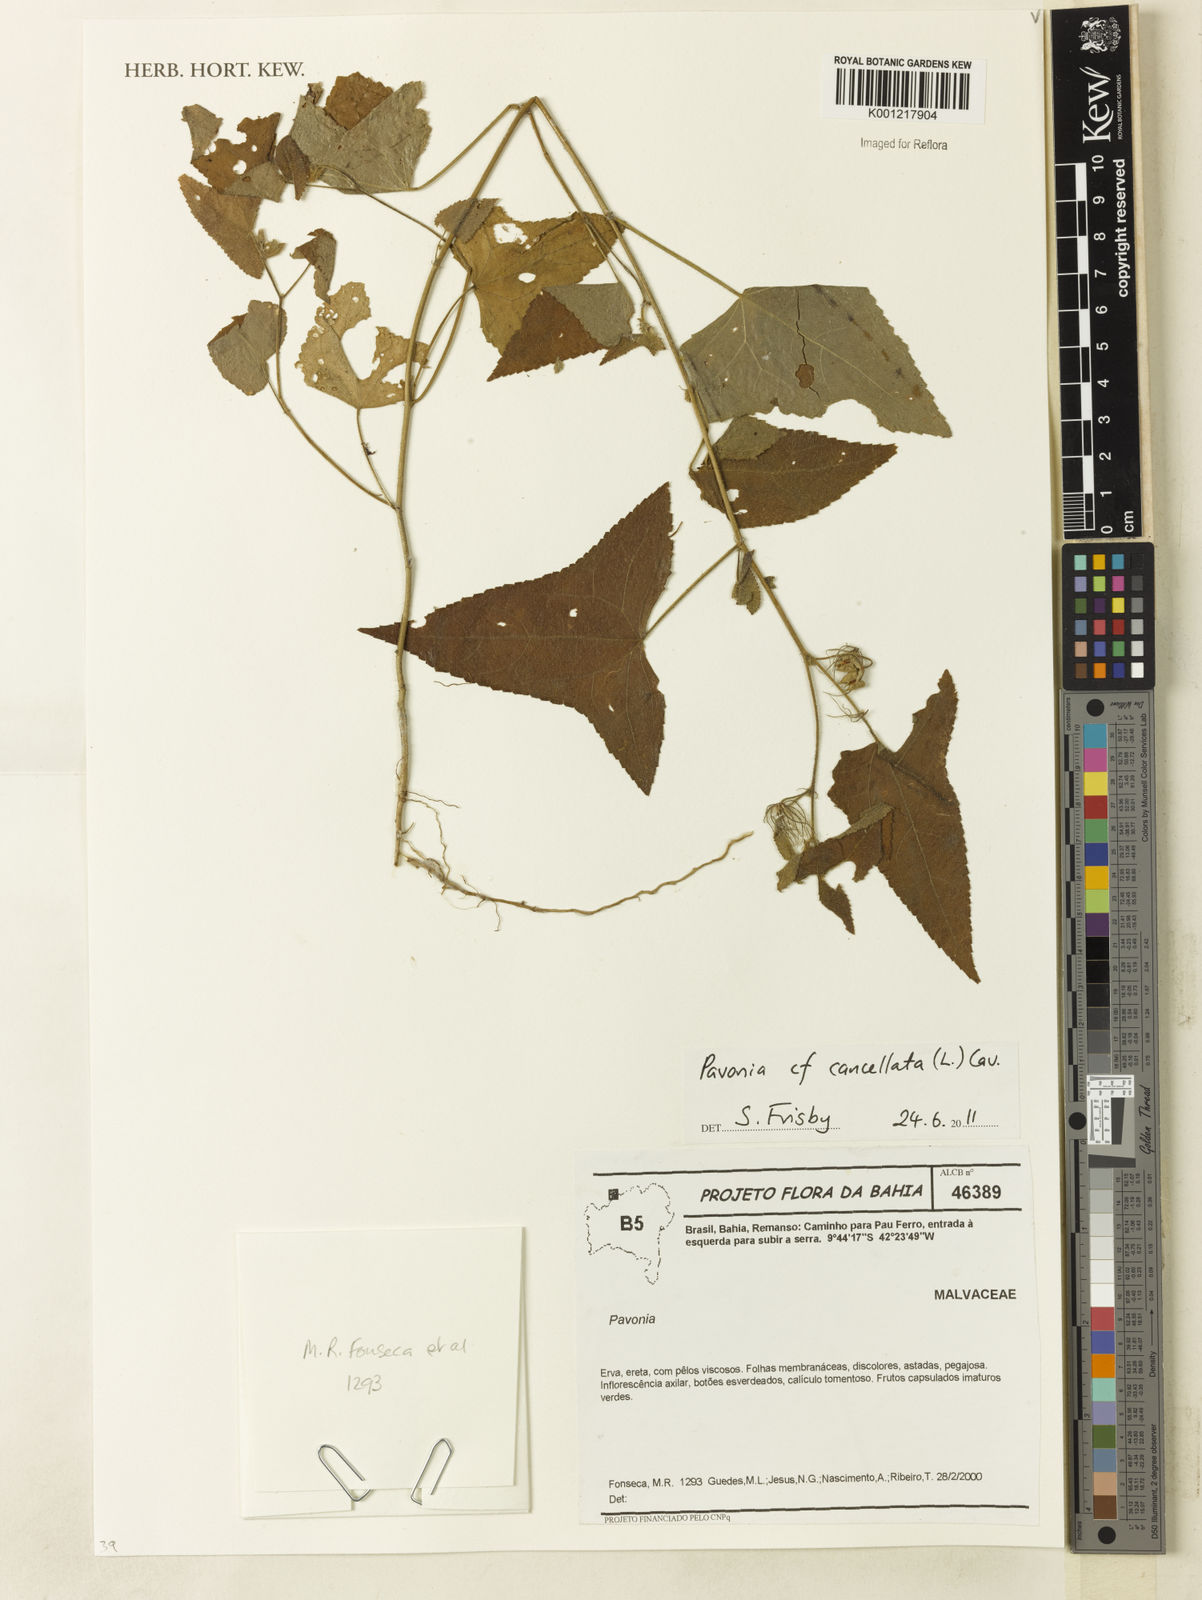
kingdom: Plantae
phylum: Tracheophyta
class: Magnoliopsida
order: Malvales
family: Malvaceae
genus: Pavonia
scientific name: Pavonia cancellata
